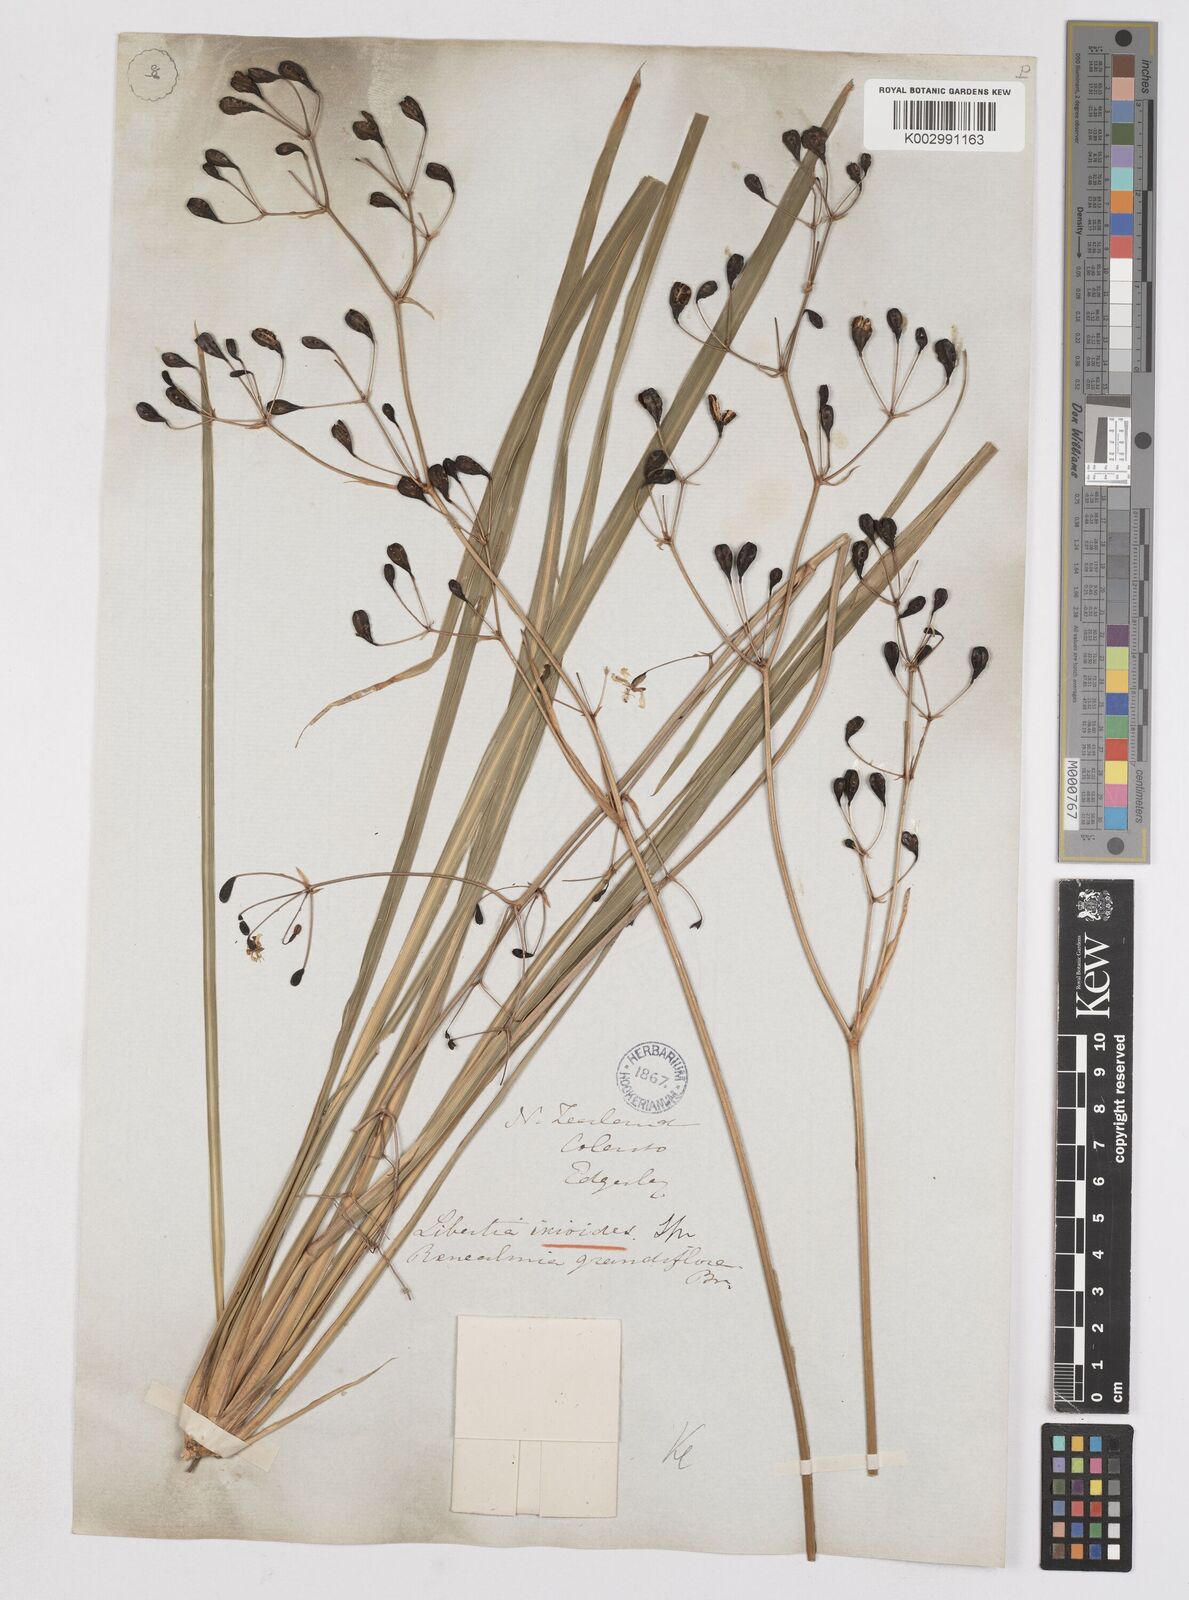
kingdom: Plantae
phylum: Tracheophyta
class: Liliopsida
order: Asparagales
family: Iridaceae
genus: Libertia
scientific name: Libertia ixioides
